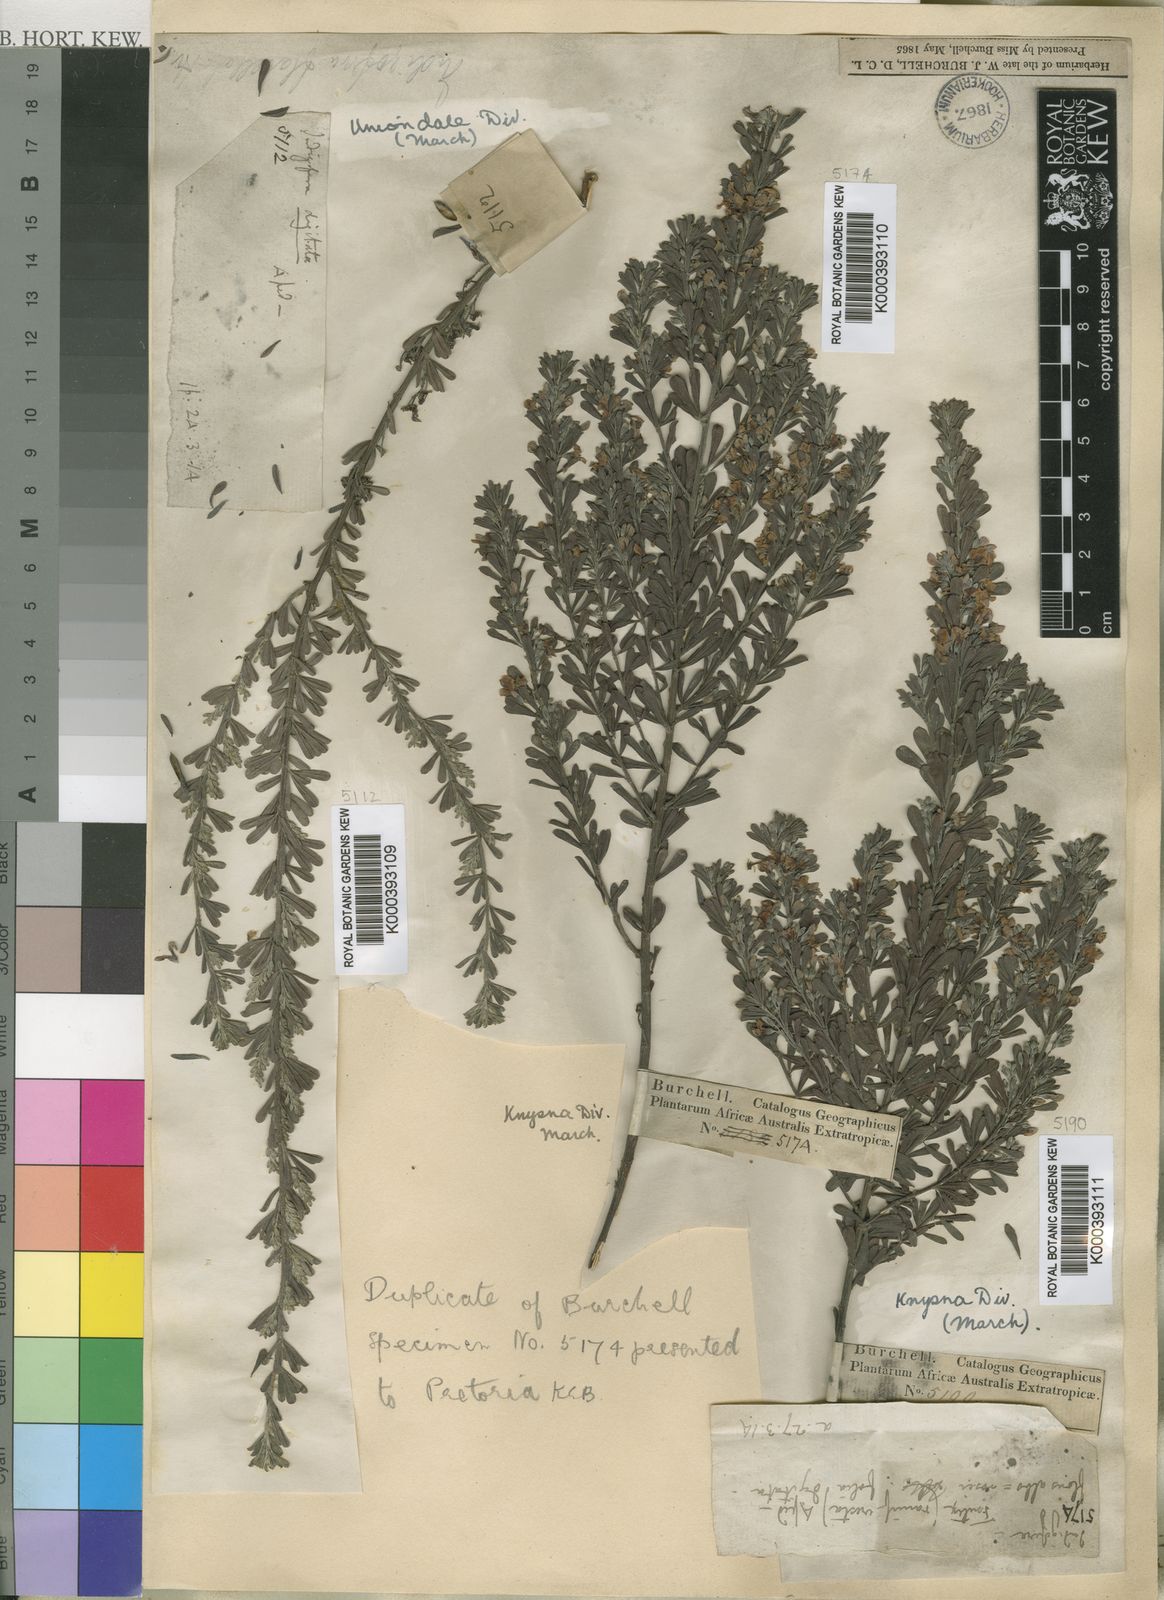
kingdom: Plantae
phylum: Tracheophyta
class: Magnoliopsida
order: Fabales
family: Fabaceae
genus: Indigofera
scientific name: Indigofera flabellata
